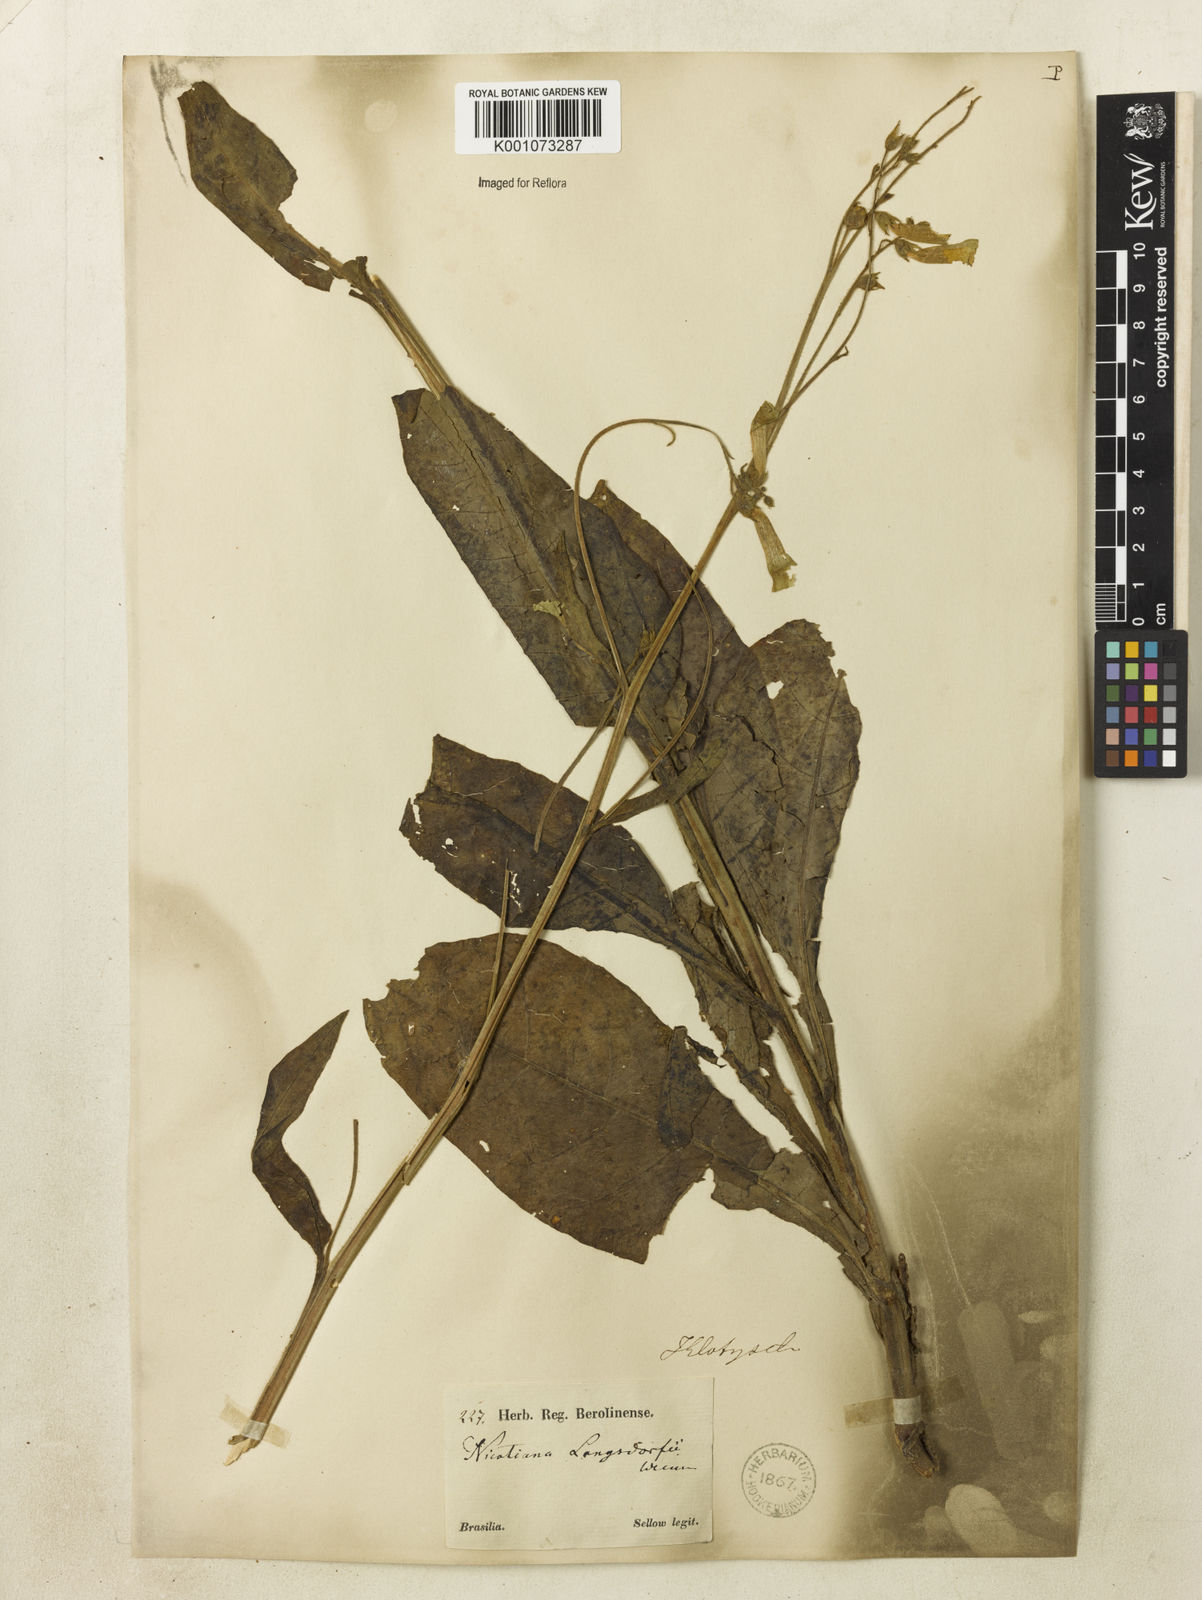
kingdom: Plantae
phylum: Tracheophyta
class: Magnoliopsida
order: Solanales
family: Solanaceae
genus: Nicotiana
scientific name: Nicotiana
